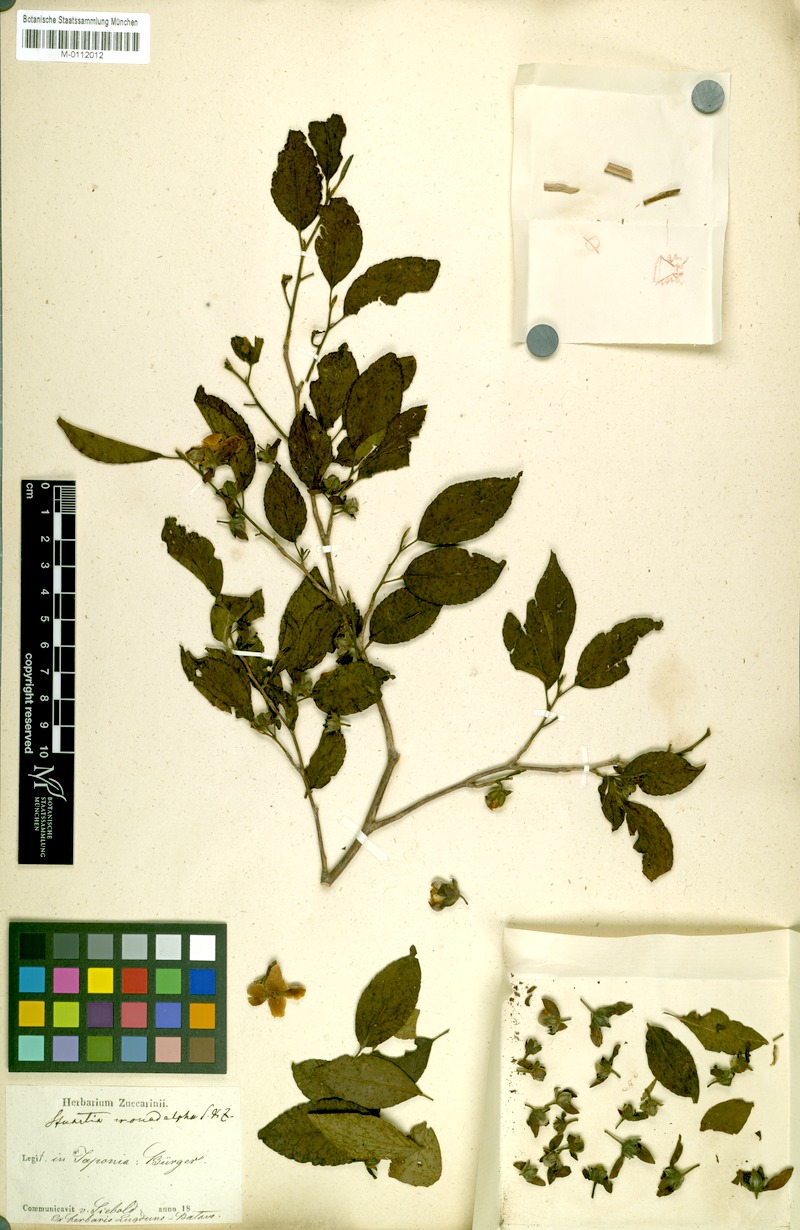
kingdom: Plantae
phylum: Tracheophyta
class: Magnoliopsida
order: Ericales
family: Theaceae
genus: Stewartia
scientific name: Stewartia monadelpha
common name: Tall stewartia
